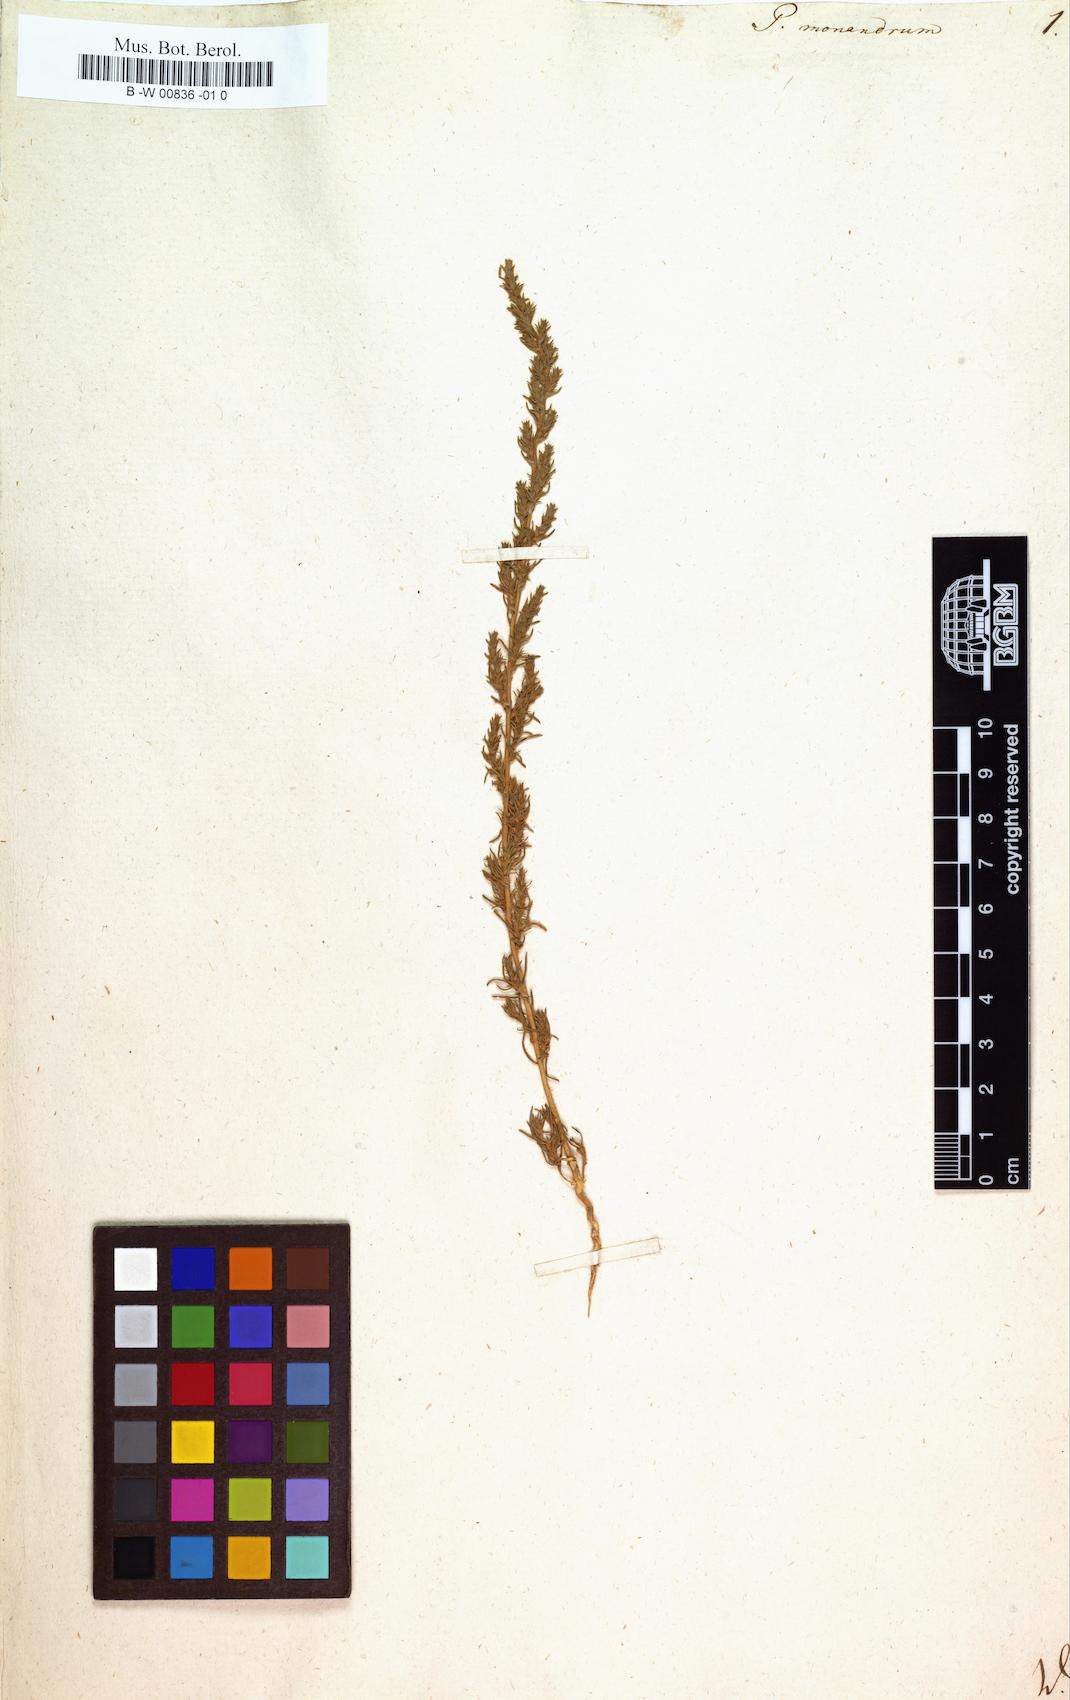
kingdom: Plantae
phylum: Tracheophyta
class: Magnoliopsida
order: Caryophyllales
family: Amaranthaceae
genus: Petrosimonia
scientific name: Petrosimonia monandra
